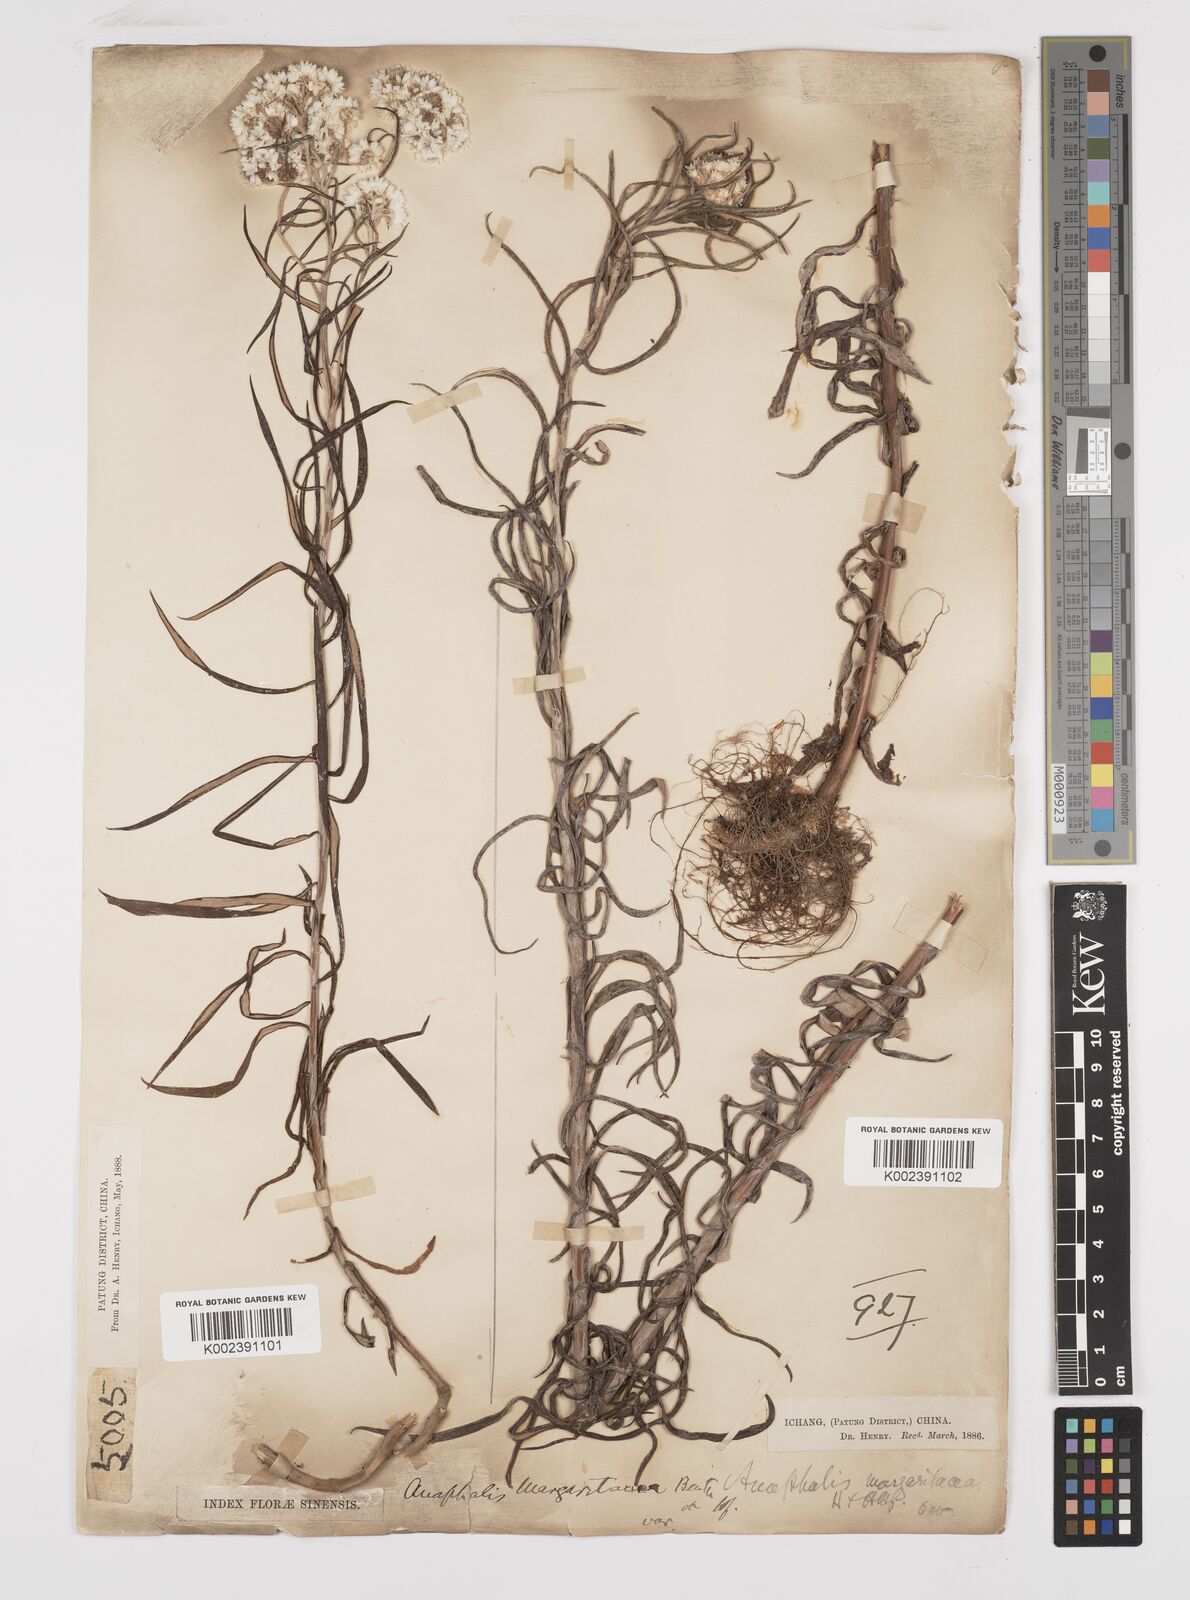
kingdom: Plantae
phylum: Tracheophyta
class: Magnoliopsida
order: Asterales
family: Asteraceae
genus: Anaphalis
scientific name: Anaphalis margaritacea
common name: Pearly everlasting
